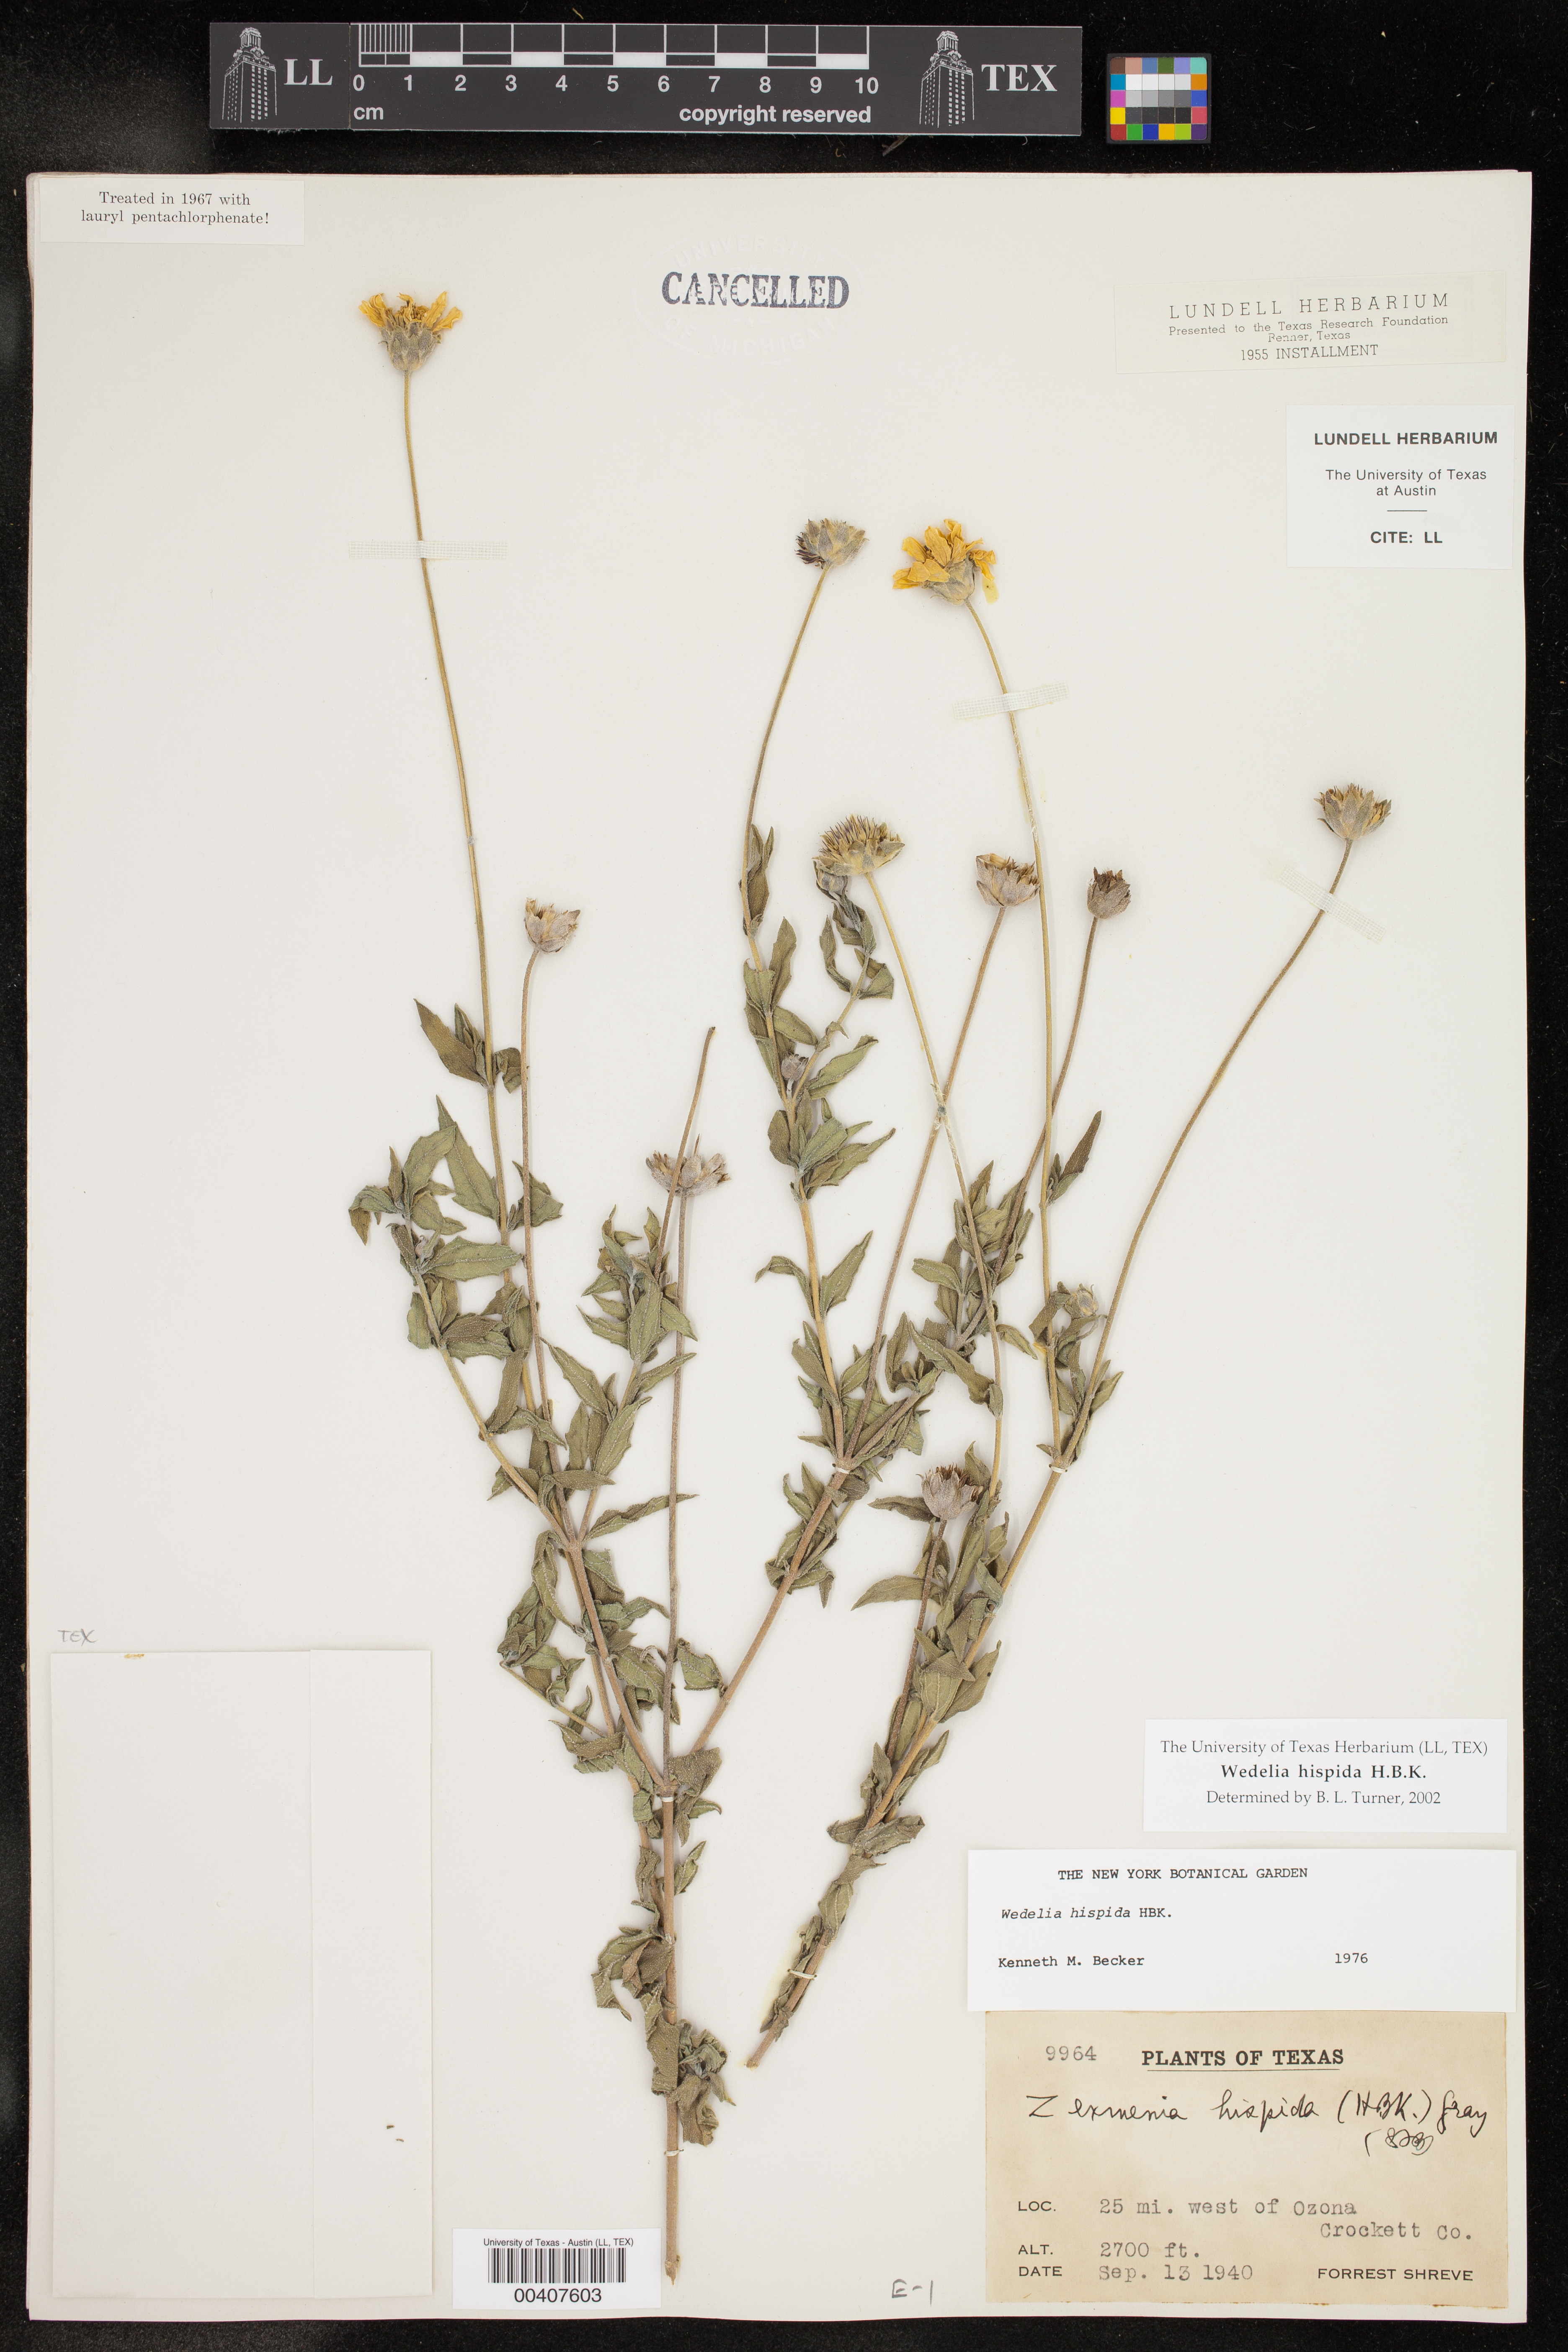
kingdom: Plantae
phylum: Tracheophyta
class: Magnoliopsida
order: Asterales
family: Asteraceae
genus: Wedelia
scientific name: Wedelia acapulcensis
